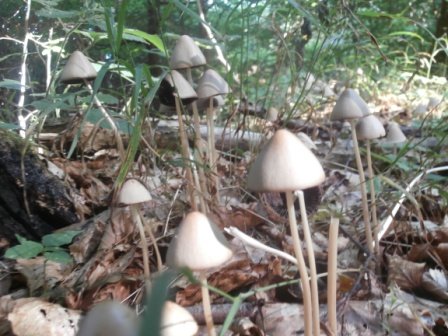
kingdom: Fungi
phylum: Basidiomycota
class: Agaricomycetes
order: Agaricales
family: Psathyrellaceae
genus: Parasola
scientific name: Parasola conopilea
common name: kegle-hjulhat
